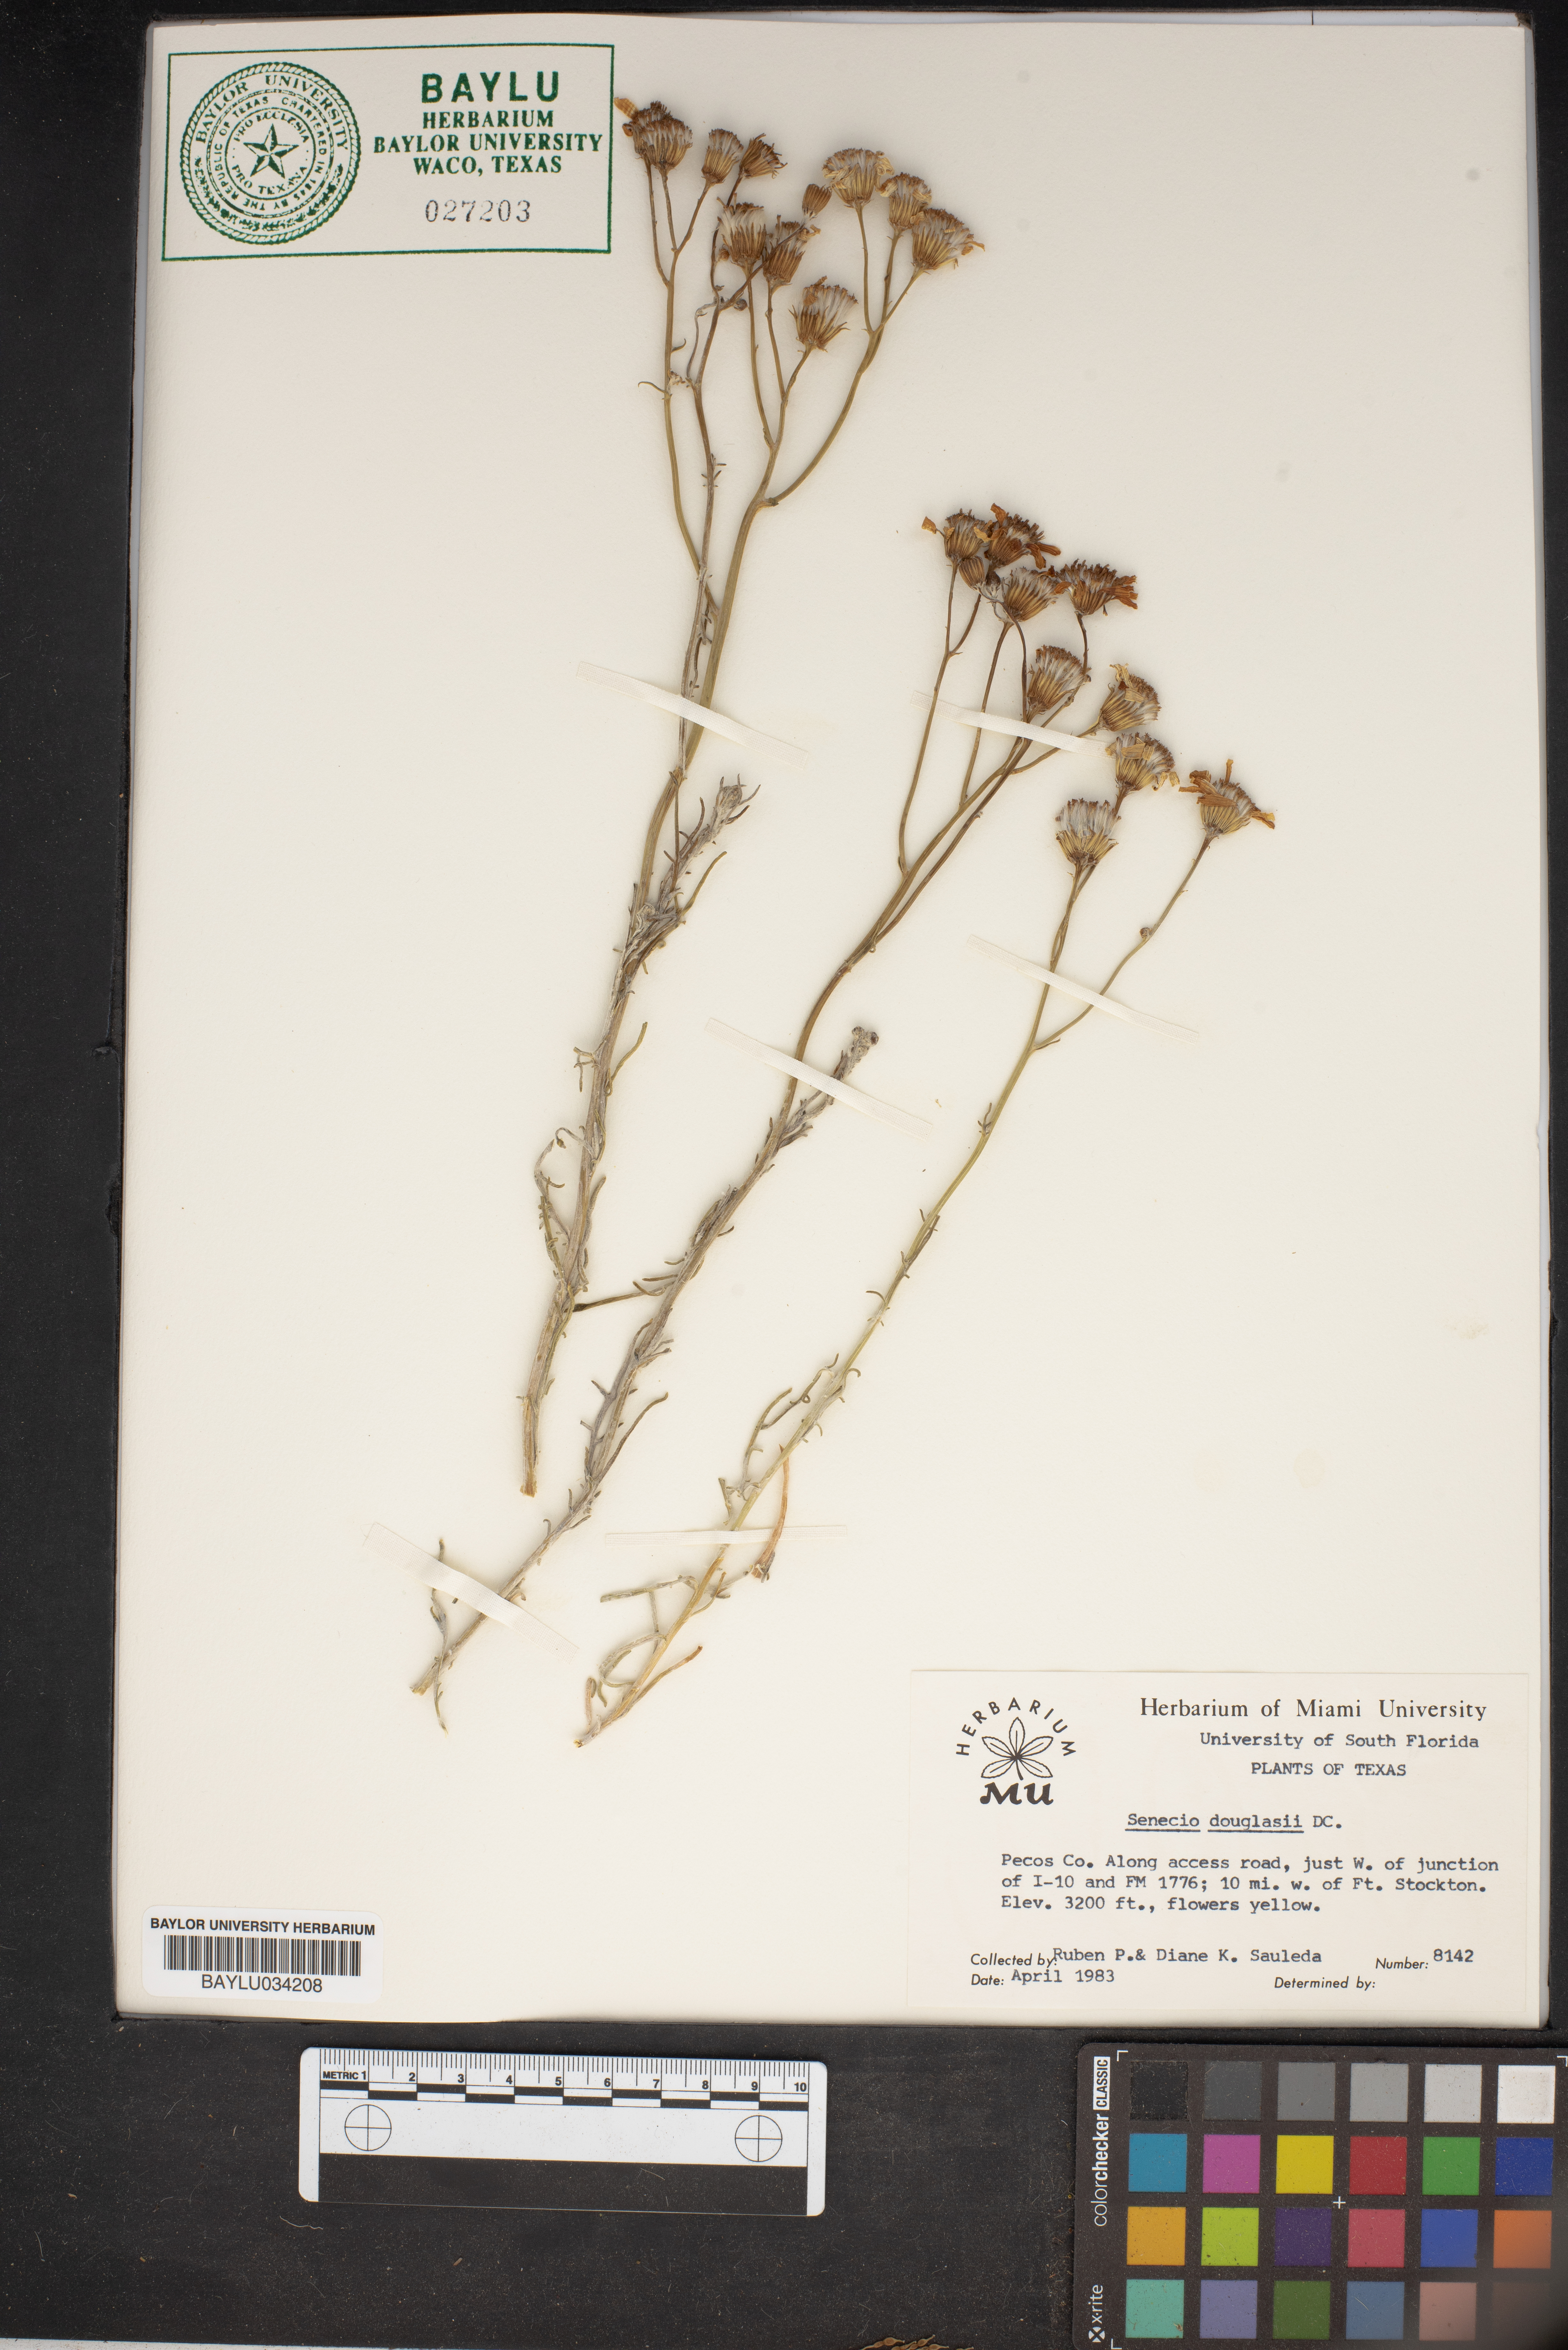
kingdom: Plantae
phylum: Tracheophyta
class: Magnoliopsida
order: Asterales
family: Asteraceae
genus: Senecio
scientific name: Senecio flaccidus
